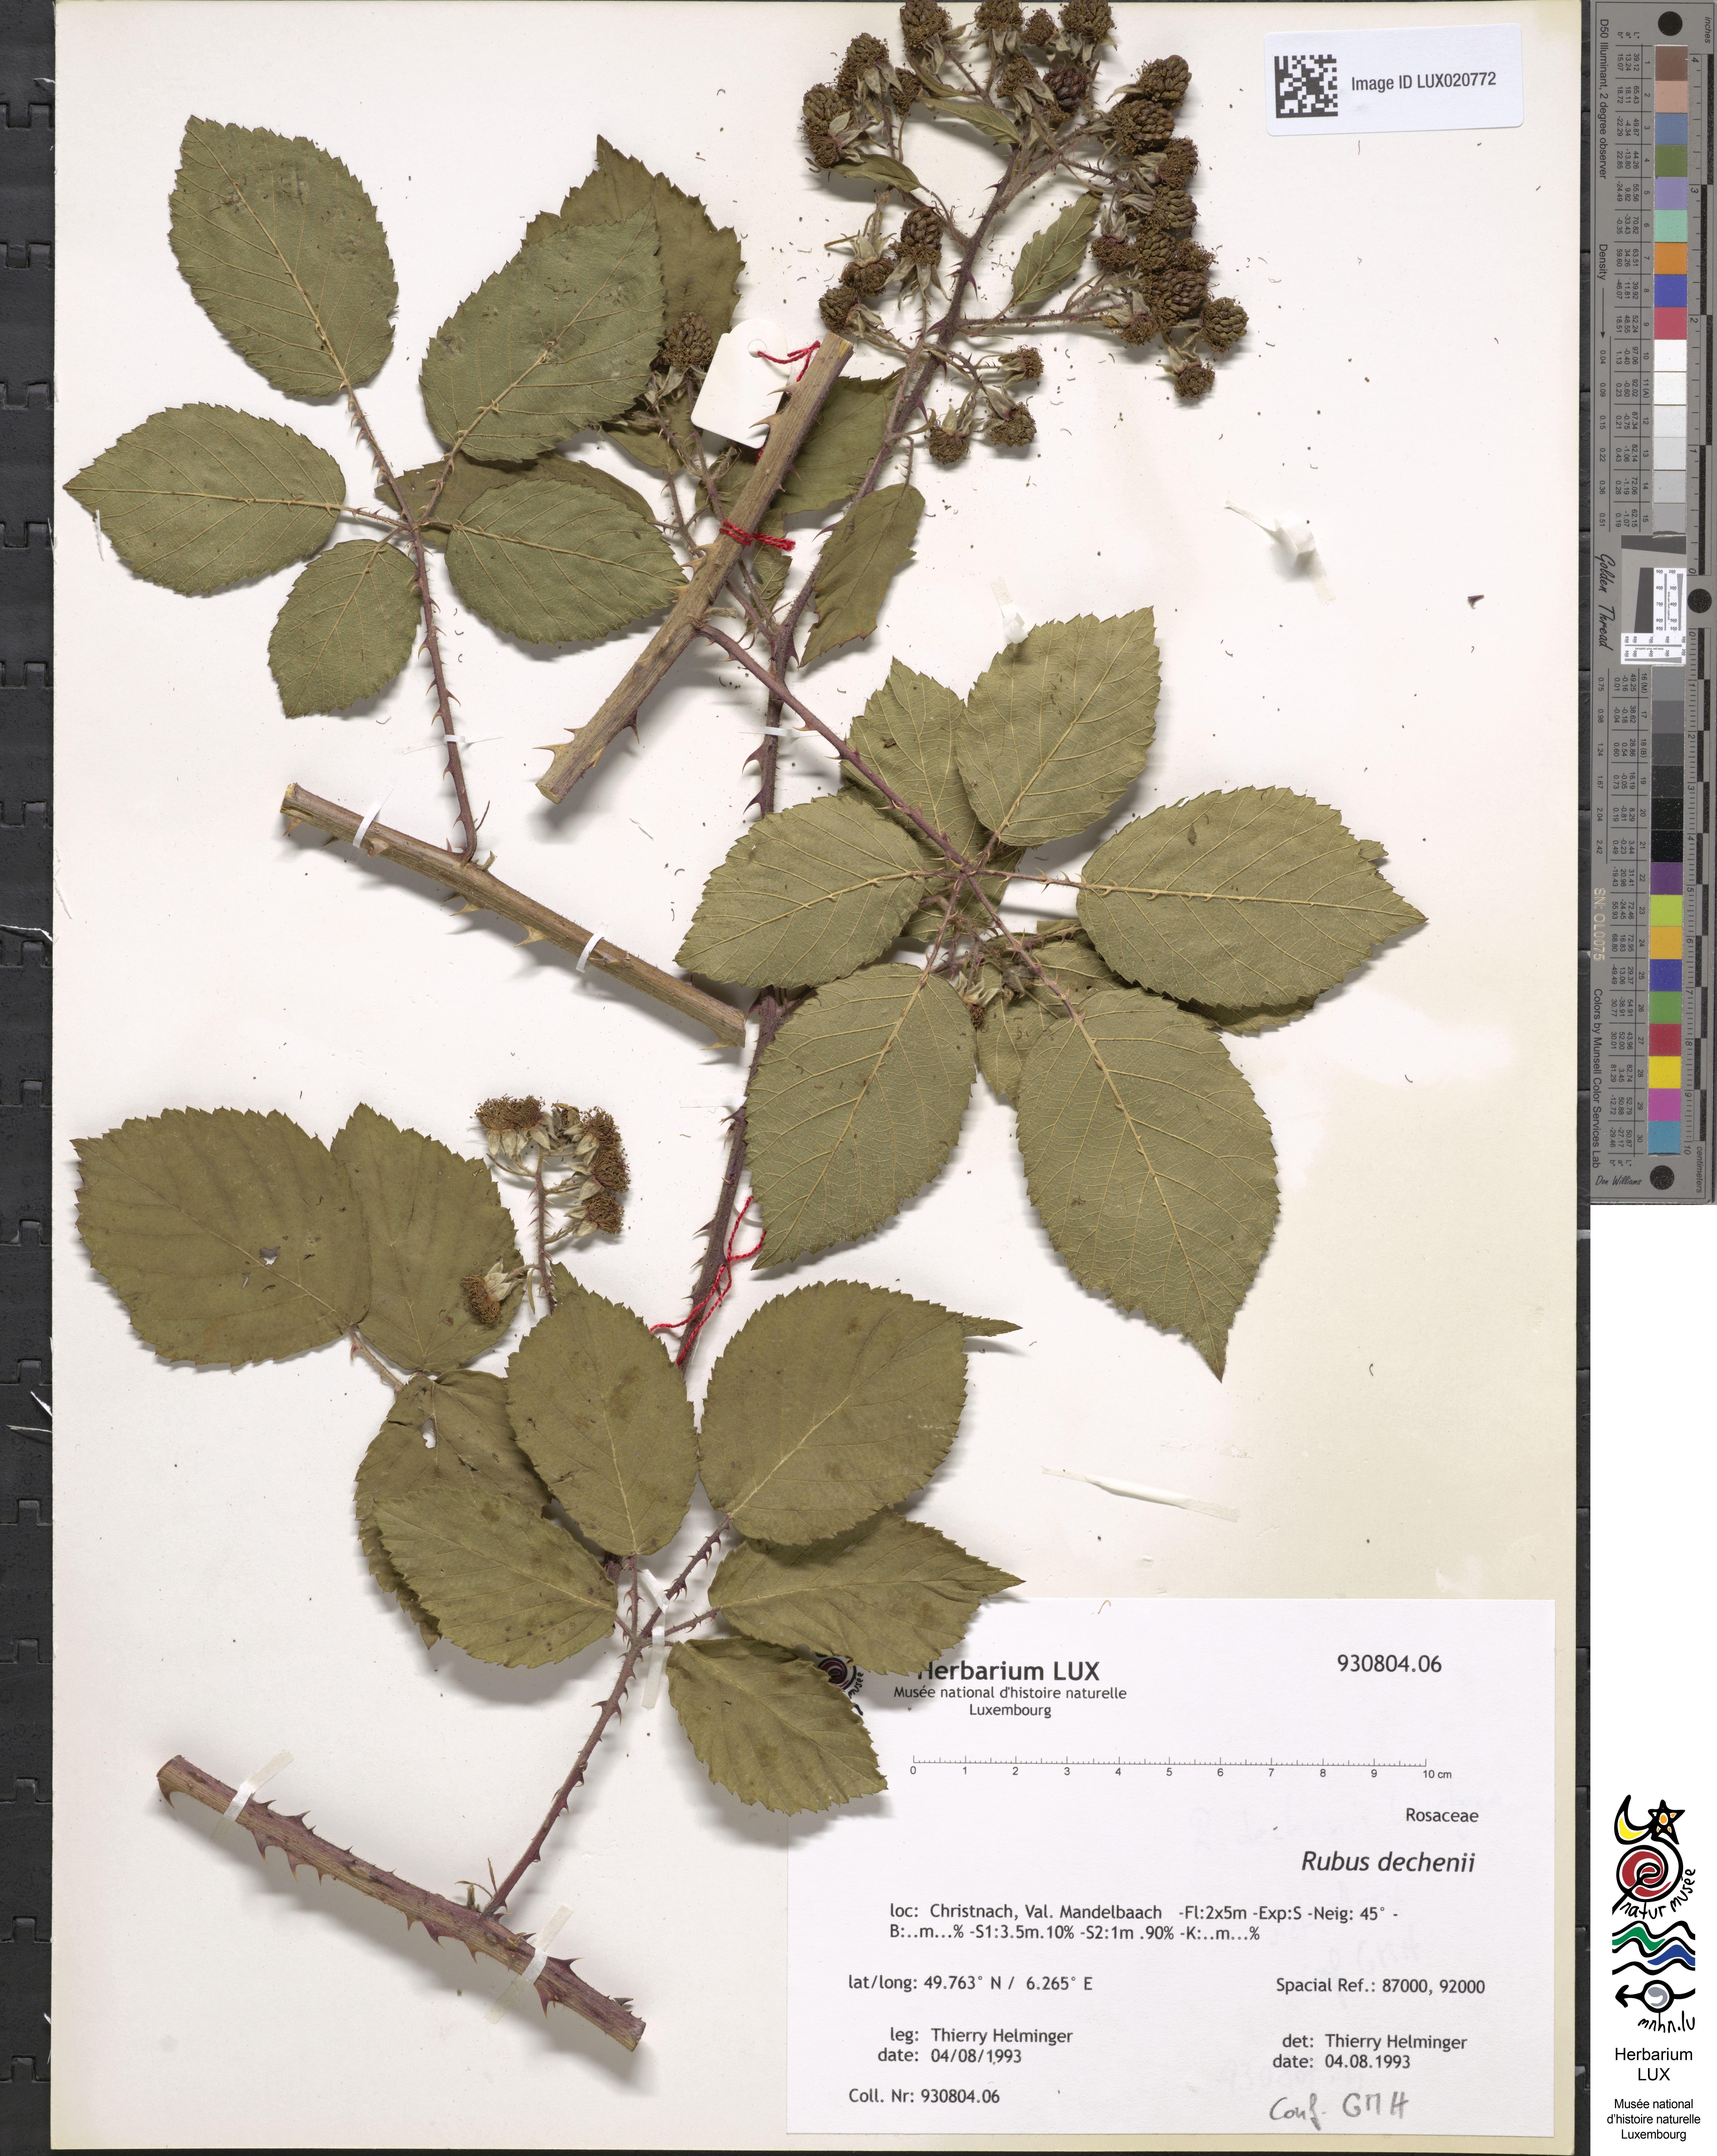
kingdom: Plantae
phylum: Tracheophyta
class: Magnoliopsida
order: Rosales
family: Rosaceae
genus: Rubus
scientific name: Rubus dechenii
